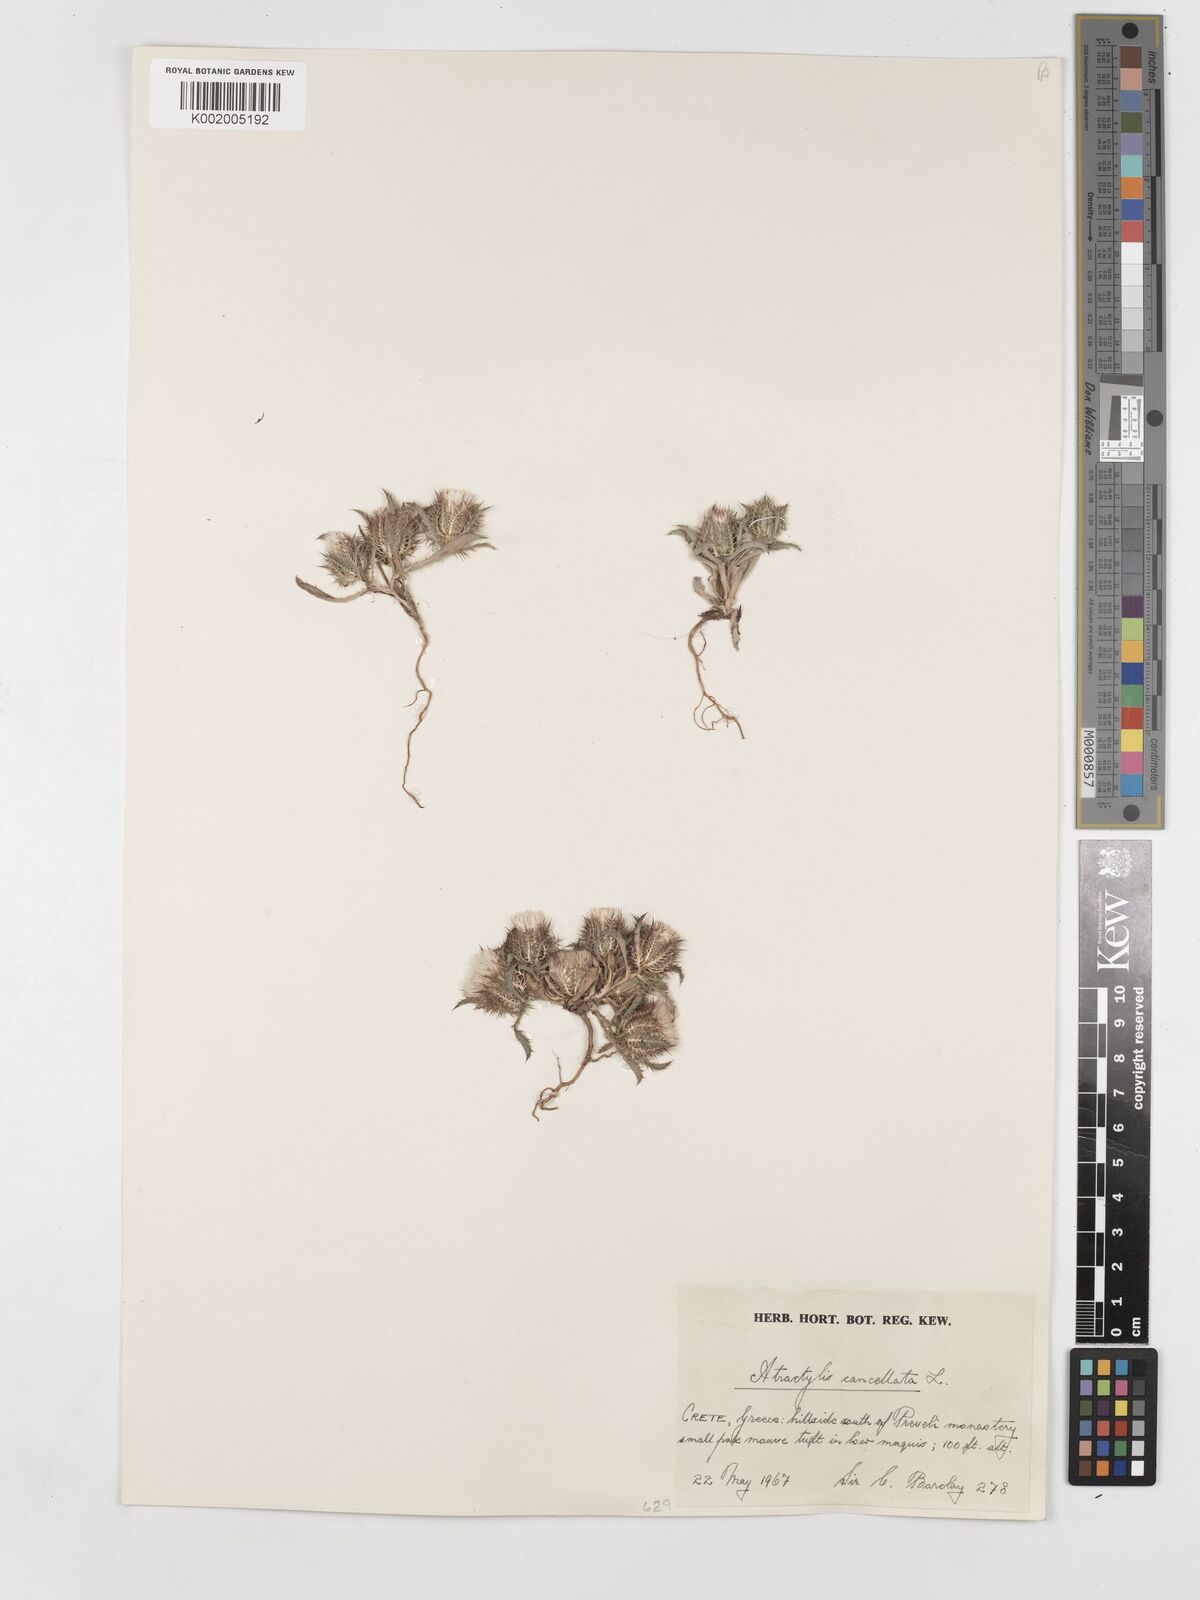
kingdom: Plantae
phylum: Tracheophyta
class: Magnoliopsida
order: Asterales
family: Asteraceae
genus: Atractylis
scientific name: Atractylis cancellata
